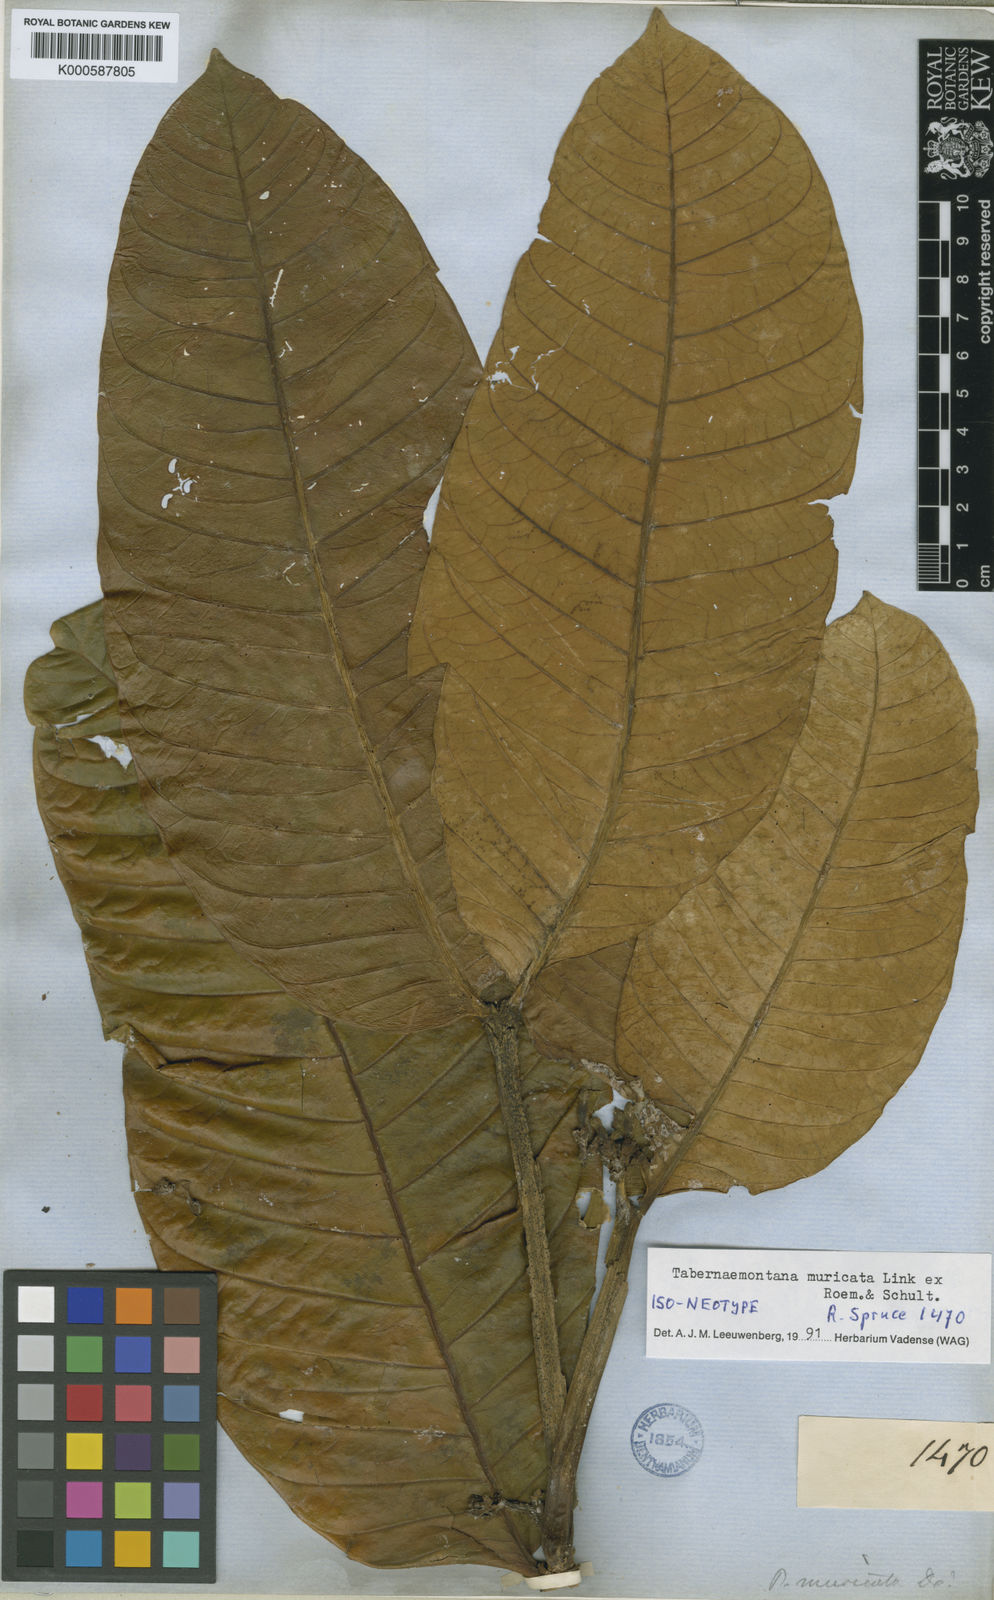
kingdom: Plantae
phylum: Tracheophyta
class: Magnoliopsida
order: Gentianales
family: Apocynaceae
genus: Tabernaemontana
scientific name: Tabernaemontana muricata
